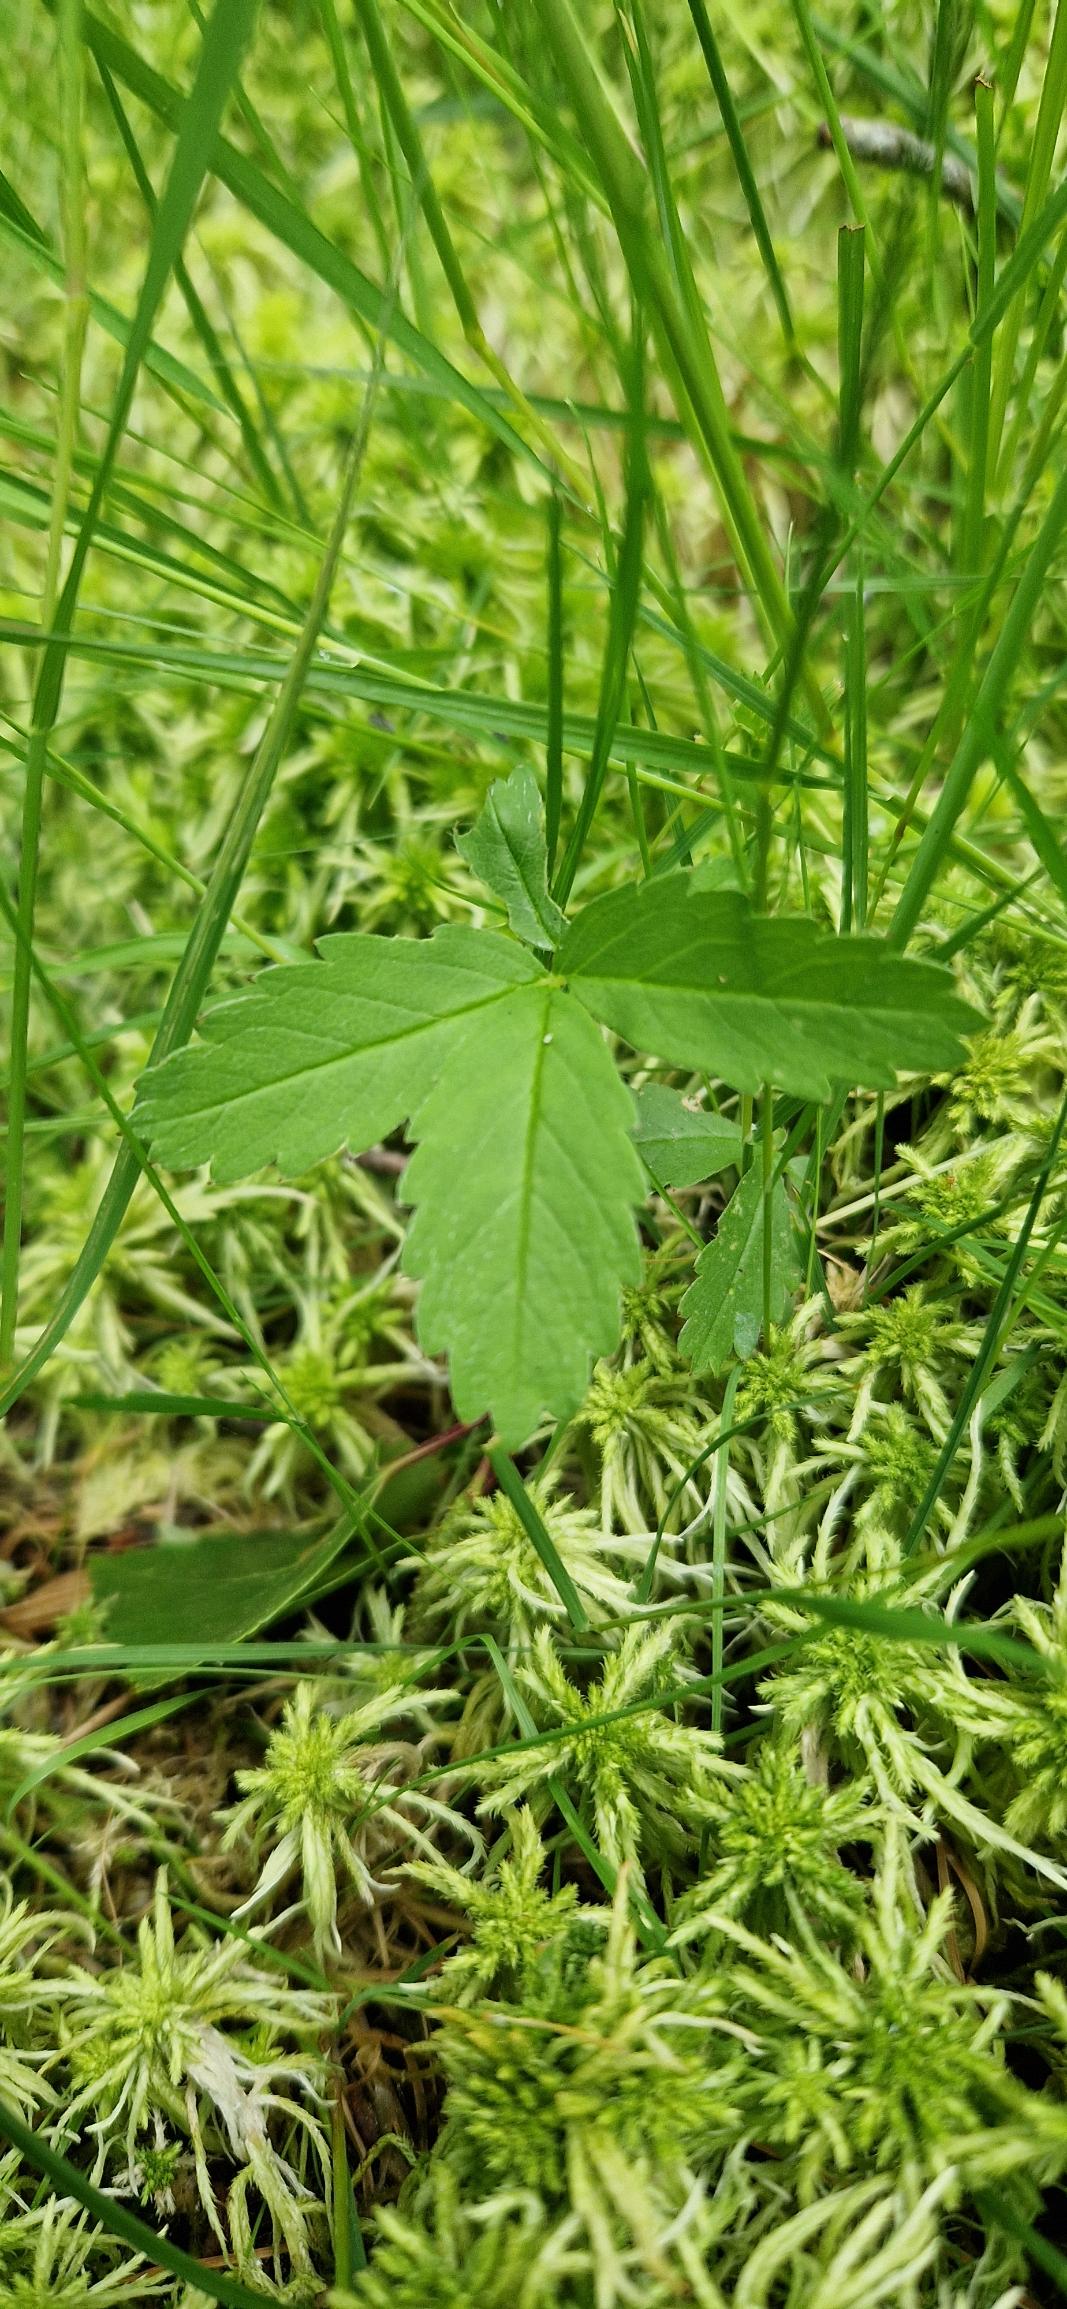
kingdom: Plantae
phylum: Tracheophyta
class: Magnoliopsida
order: Rosales
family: Rosaceae
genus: Comarum
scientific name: Comarum palustre
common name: Kragefod
